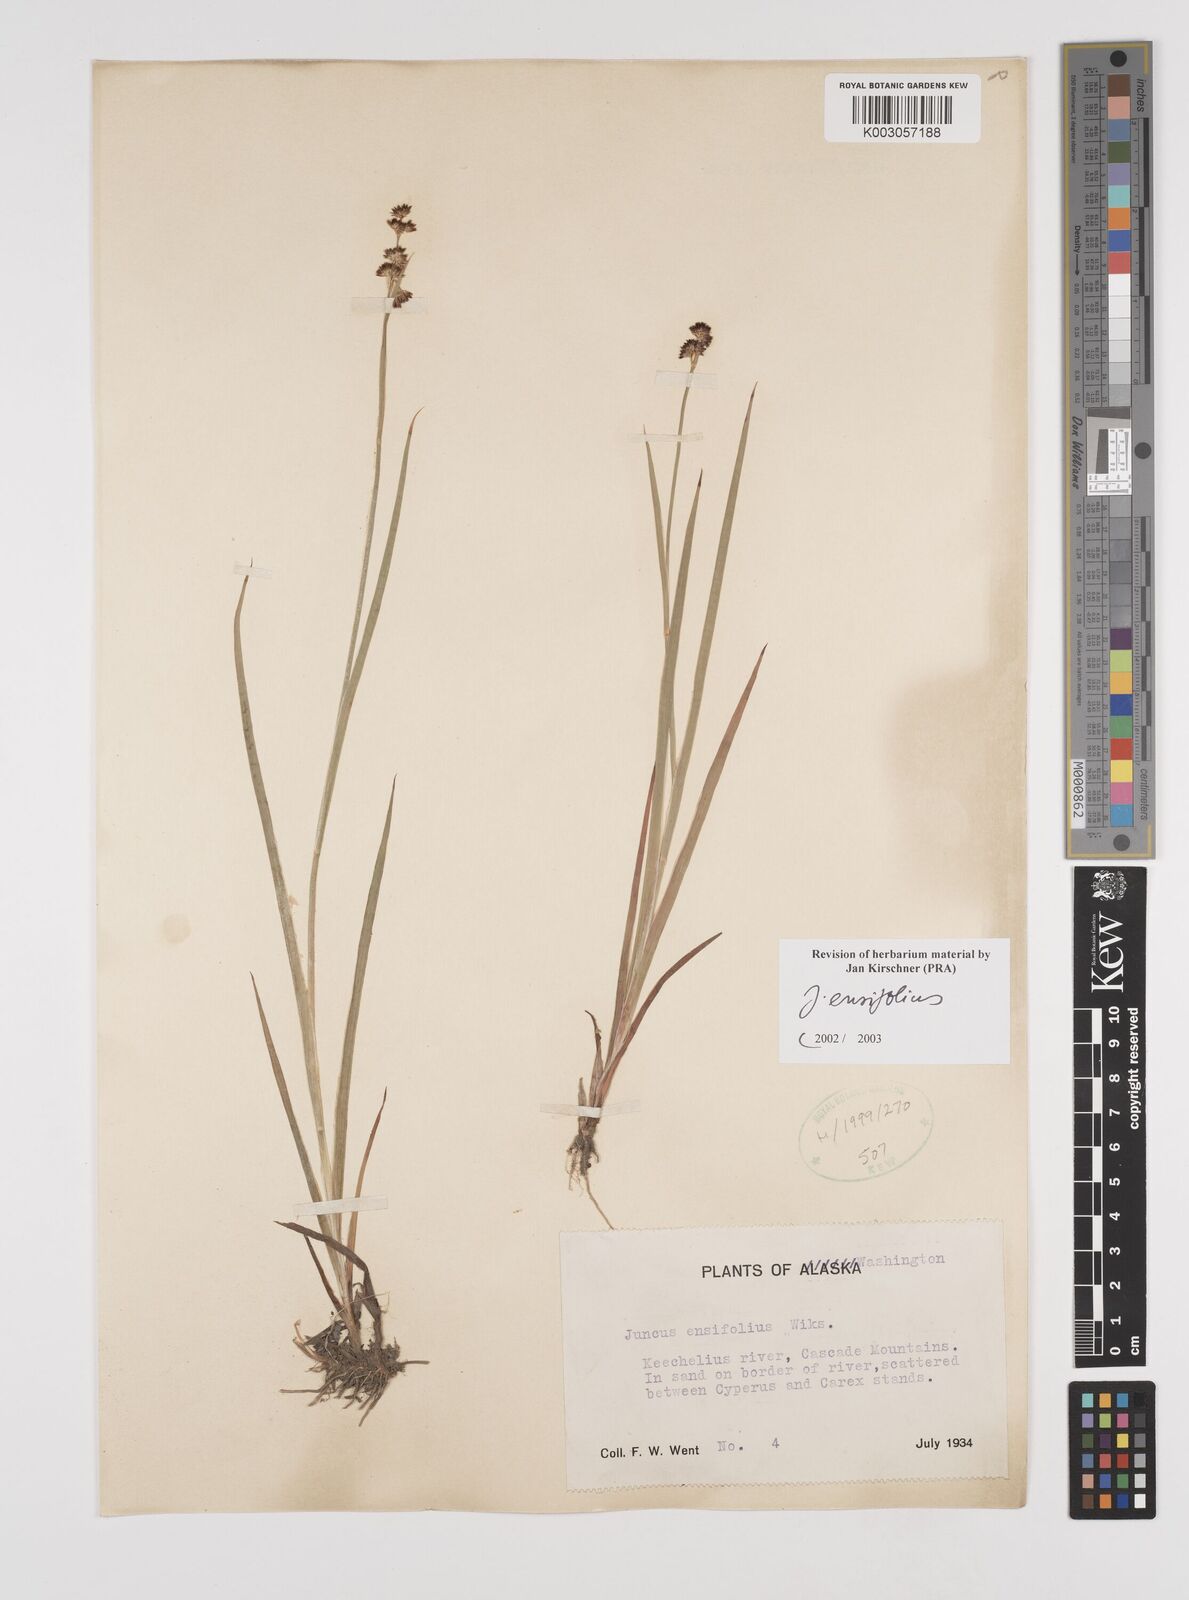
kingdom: Plantae
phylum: Tracheophyta
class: Liliopsida
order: Poales
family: Juncaceae
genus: Juncus
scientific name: Juncus ensifolius
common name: Sword-leaved rush
